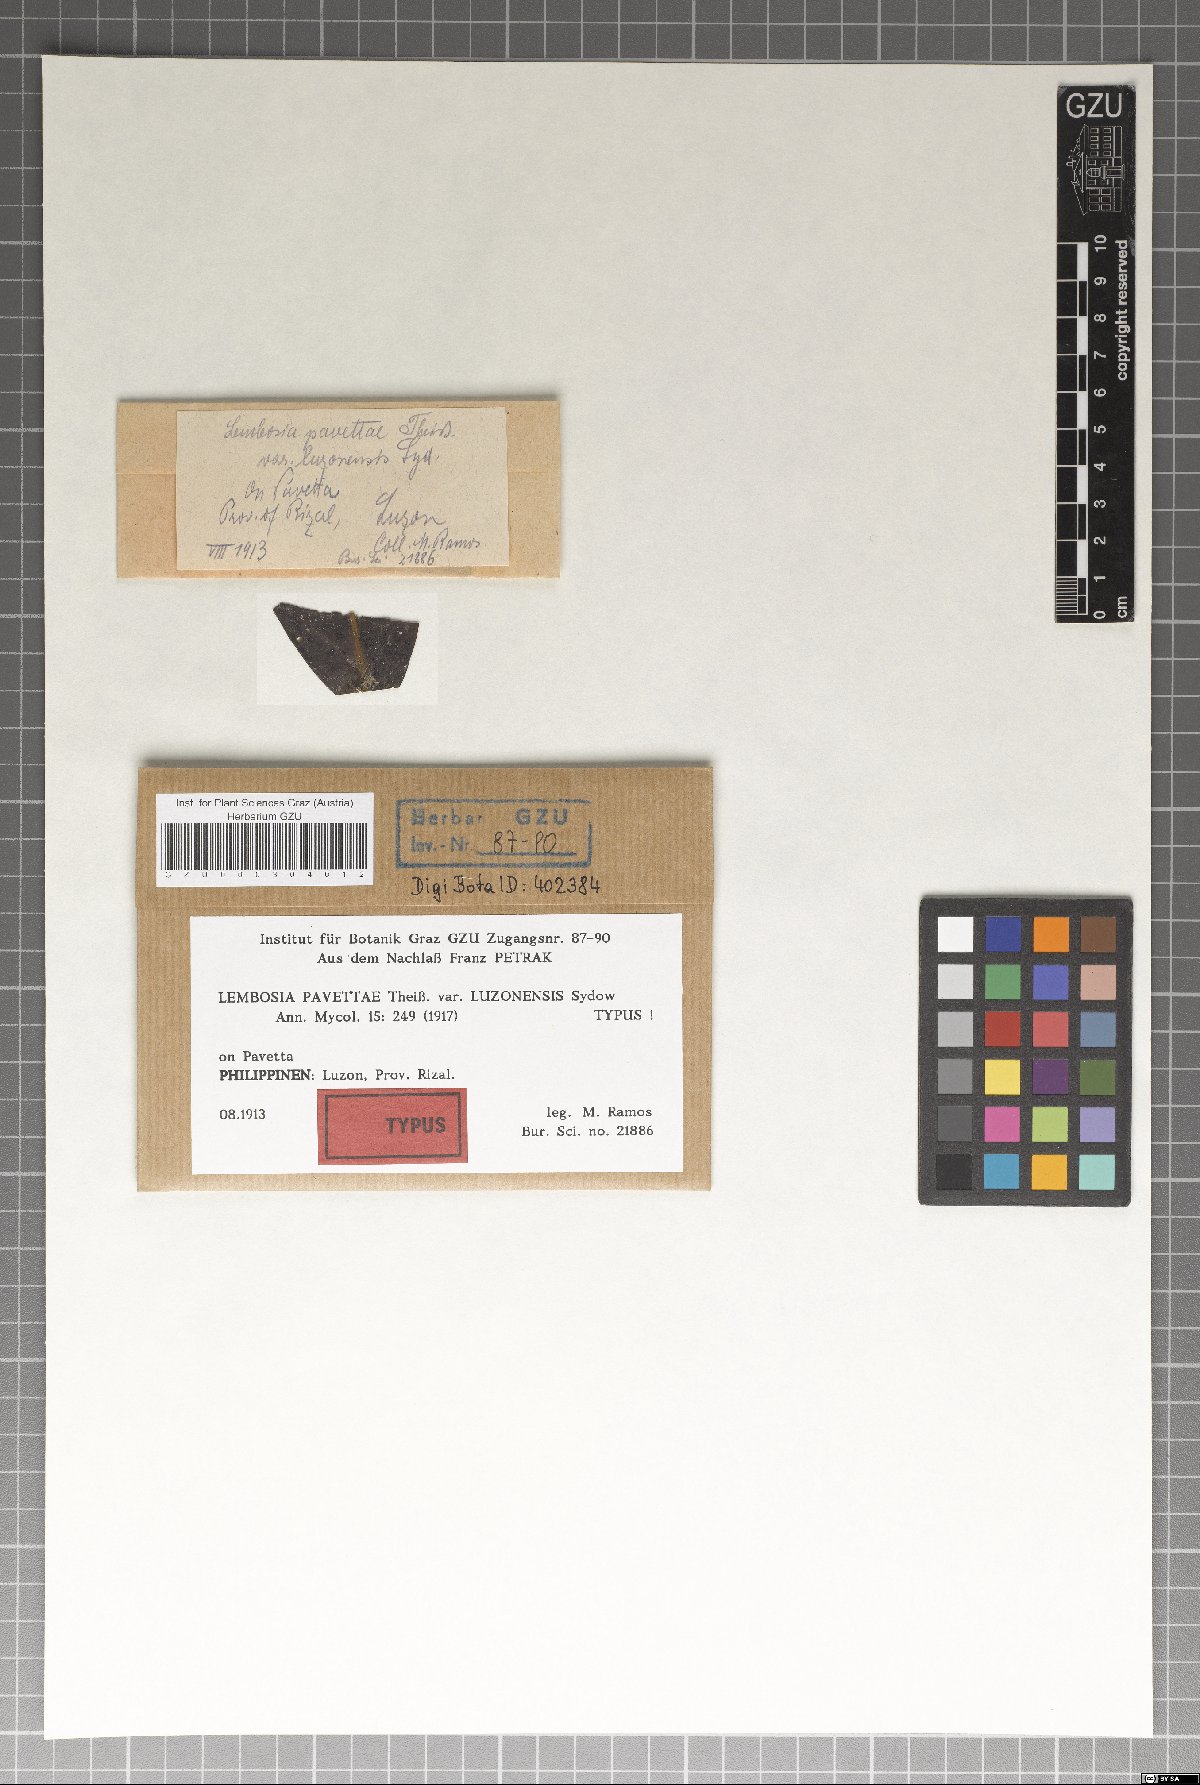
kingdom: Fungi
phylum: Ascomycota
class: Dothideomycetes
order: Asterinales
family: Asterinaceae
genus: Lembosia
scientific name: Lembosia pavettae
